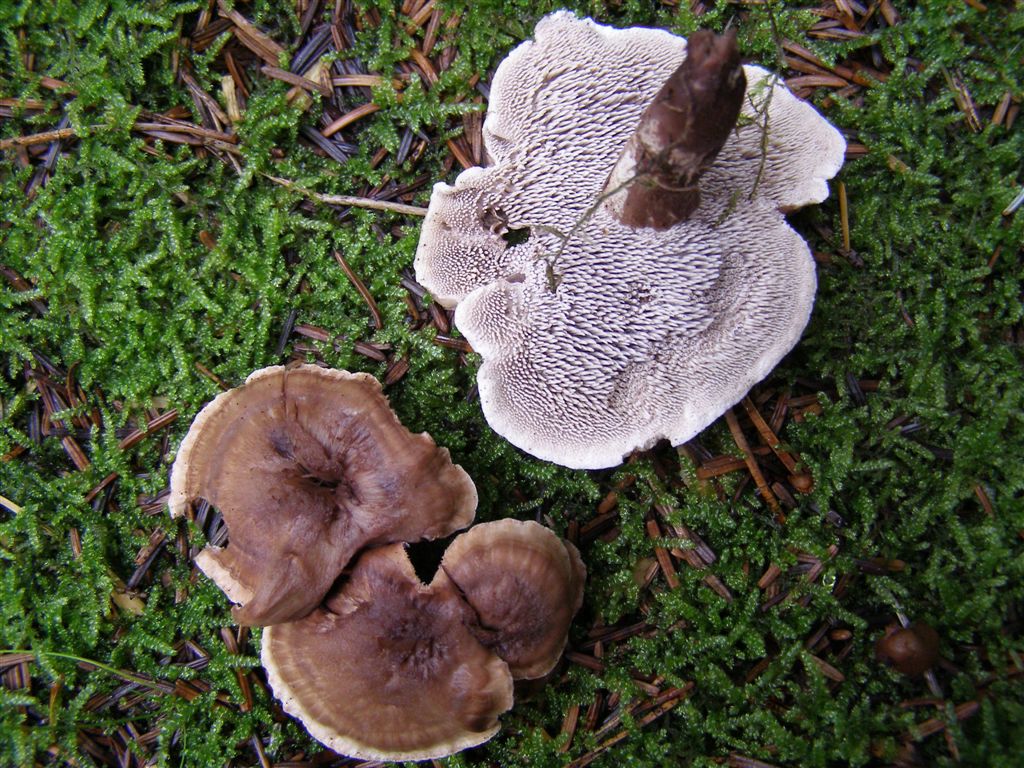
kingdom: Fungi
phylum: Basidiomycota
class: Agaricomycetes
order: Thelephorales
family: Thelephoraceae
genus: Phellodon
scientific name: Phellodon violascens
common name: violetbrun duftpigsvamp
